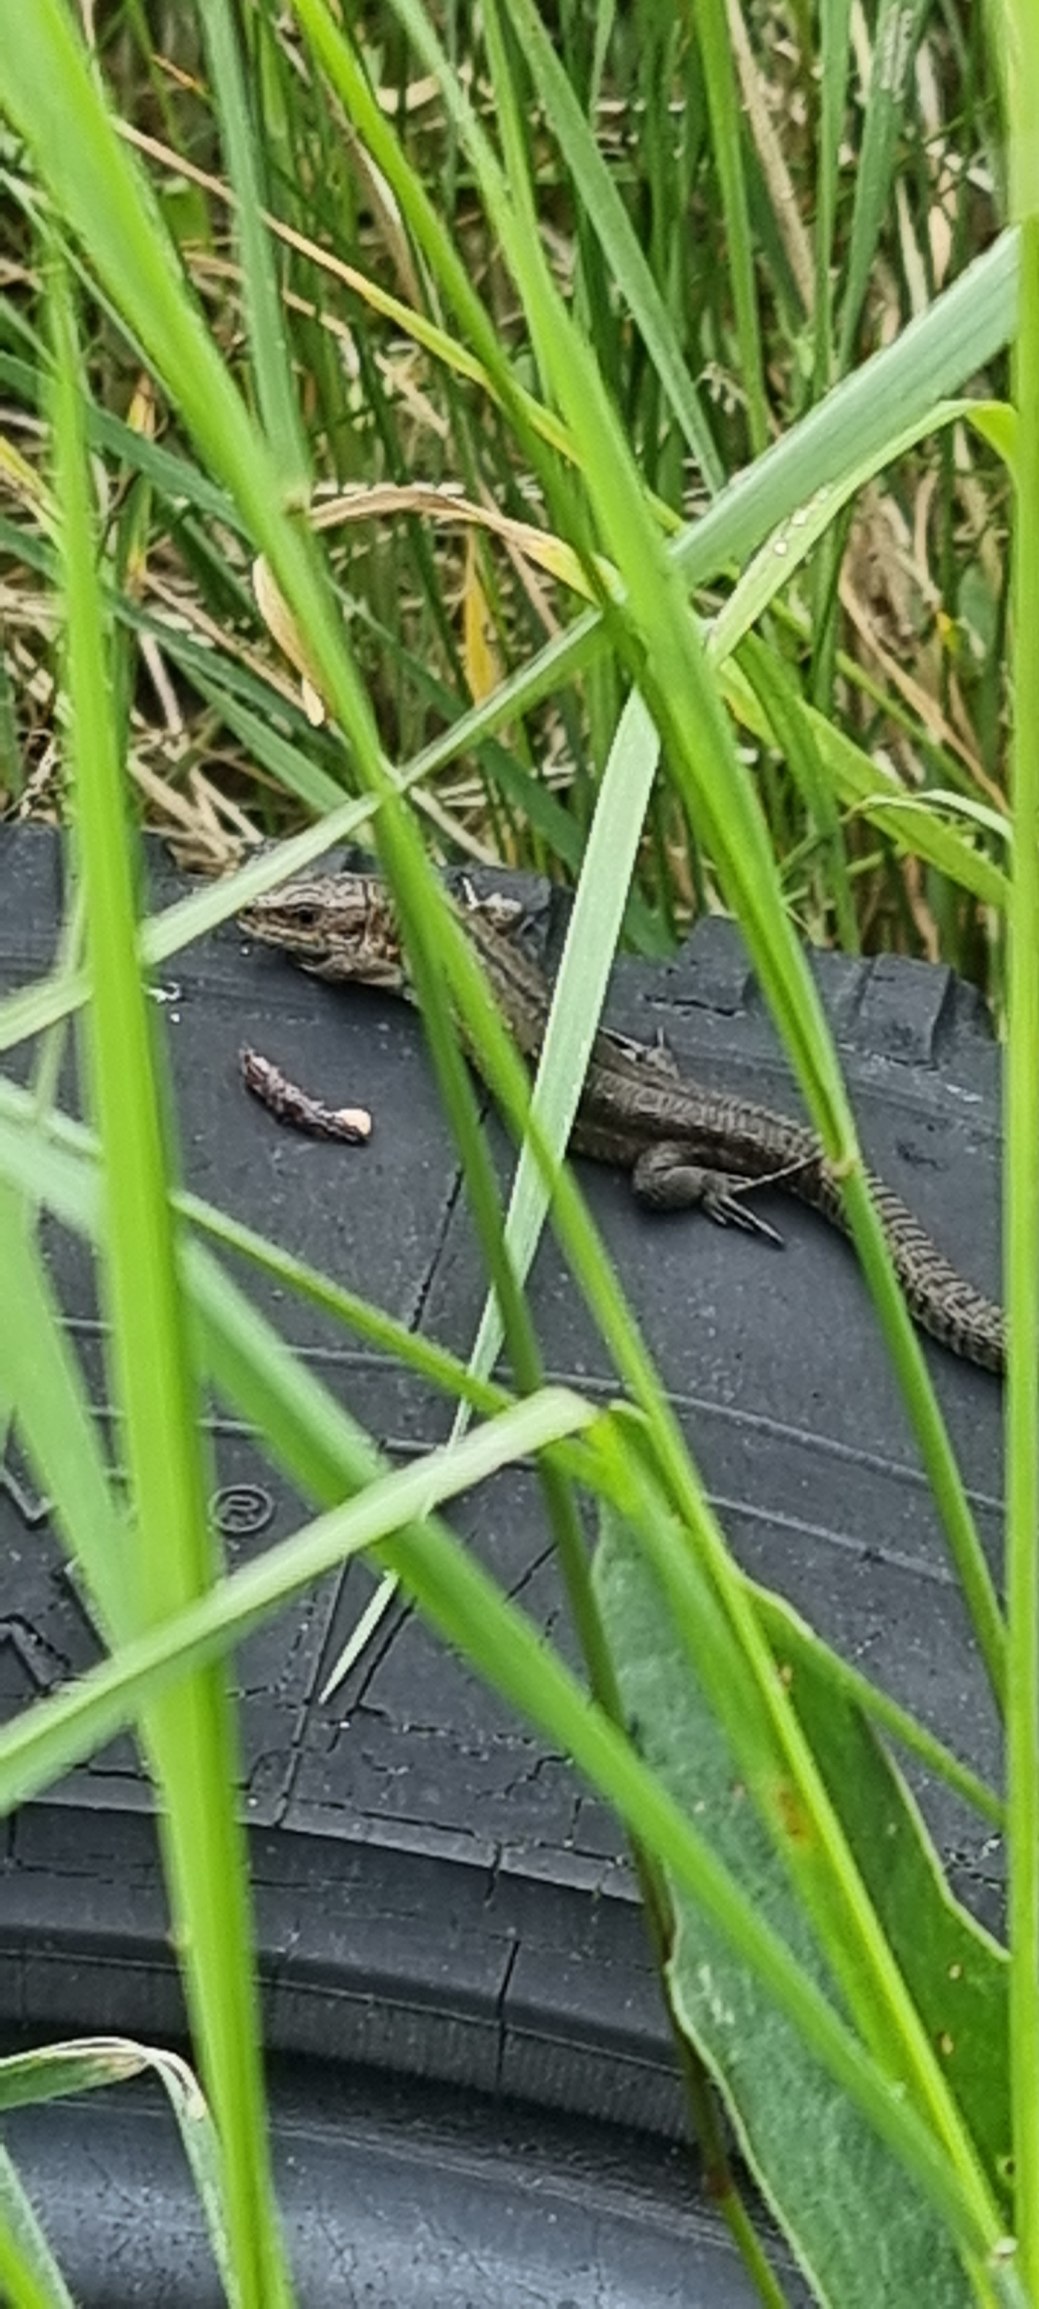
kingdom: Animalia
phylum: Chordata
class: Squamata
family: Lacertidae
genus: Zootoca
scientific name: Zootoca vivipara
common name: Skovfirben
